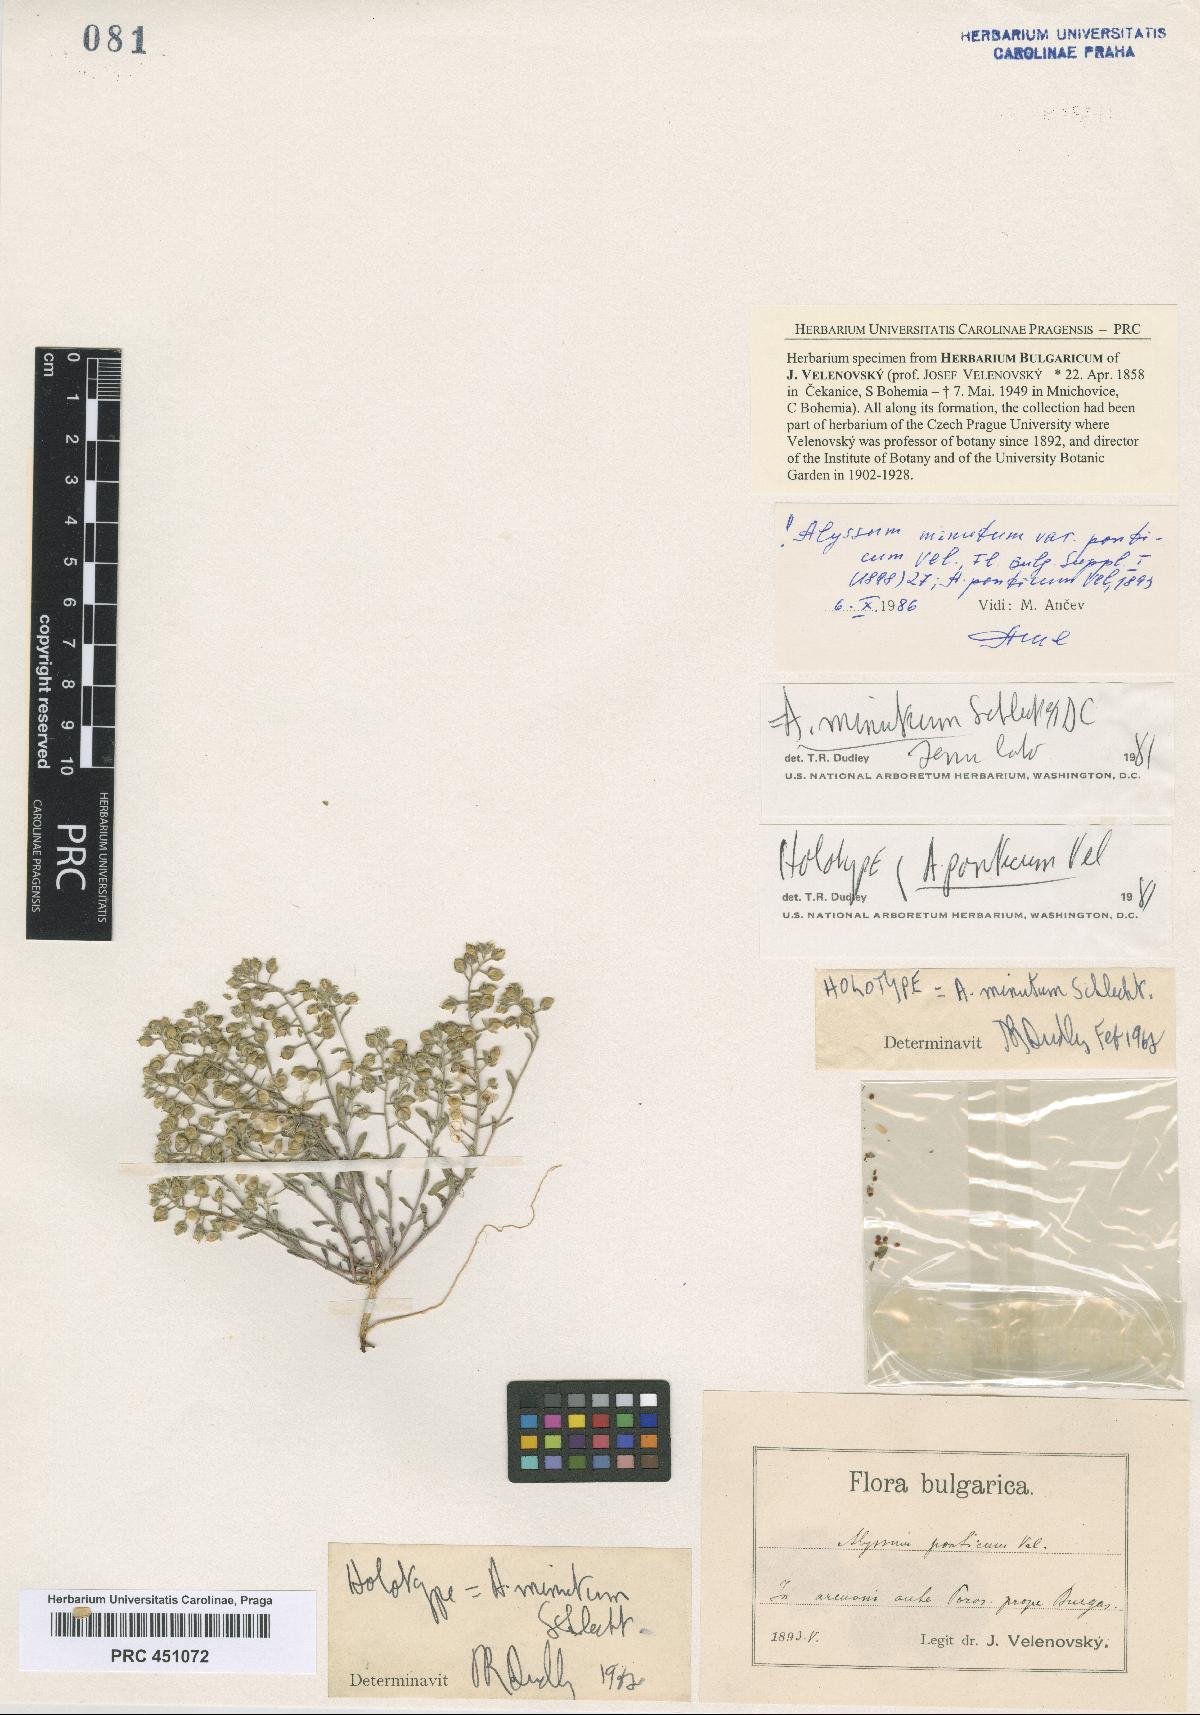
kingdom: Plantae
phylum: Tracheophyta
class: Magnoliopsida
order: Brassicales
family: Brassicaceae
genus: Alyssum
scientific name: Alyssum minutum
